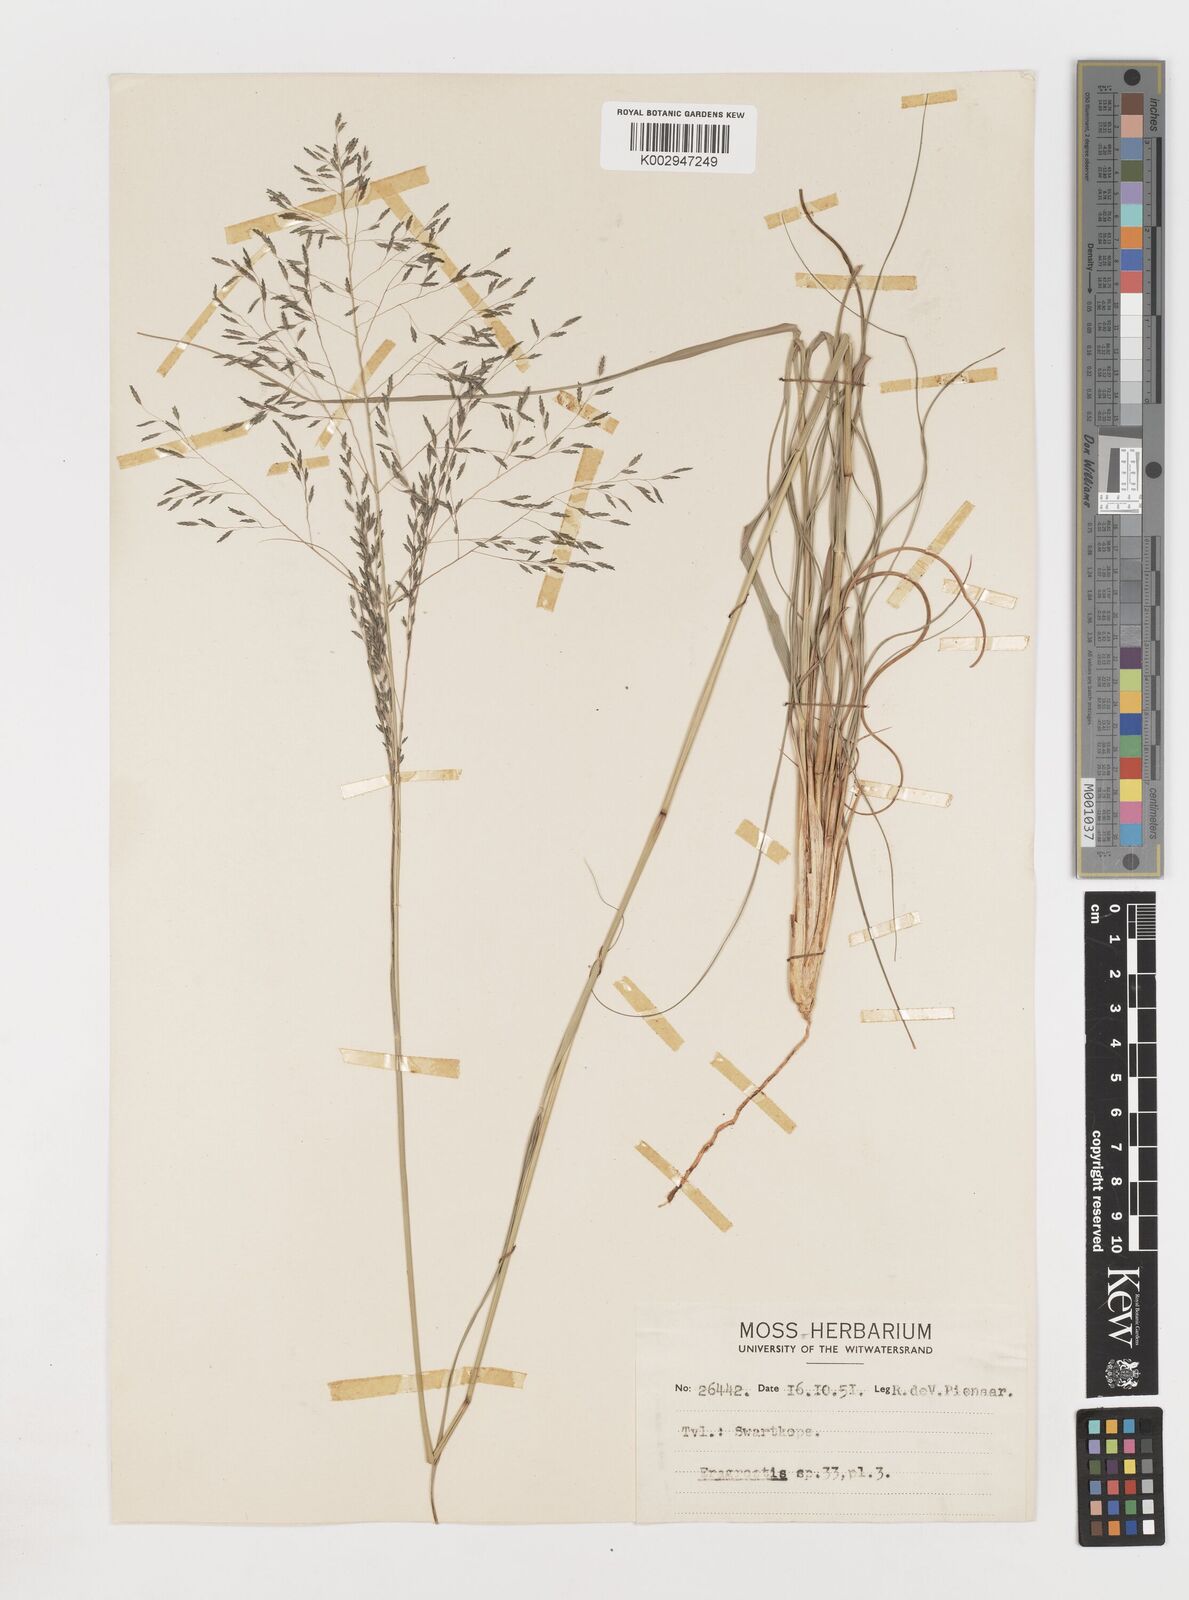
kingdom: Plantae
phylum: Tracheophyta
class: Liliopsida
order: Poales
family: Poaceae
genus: Eragrostis
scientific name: Eragrostis
